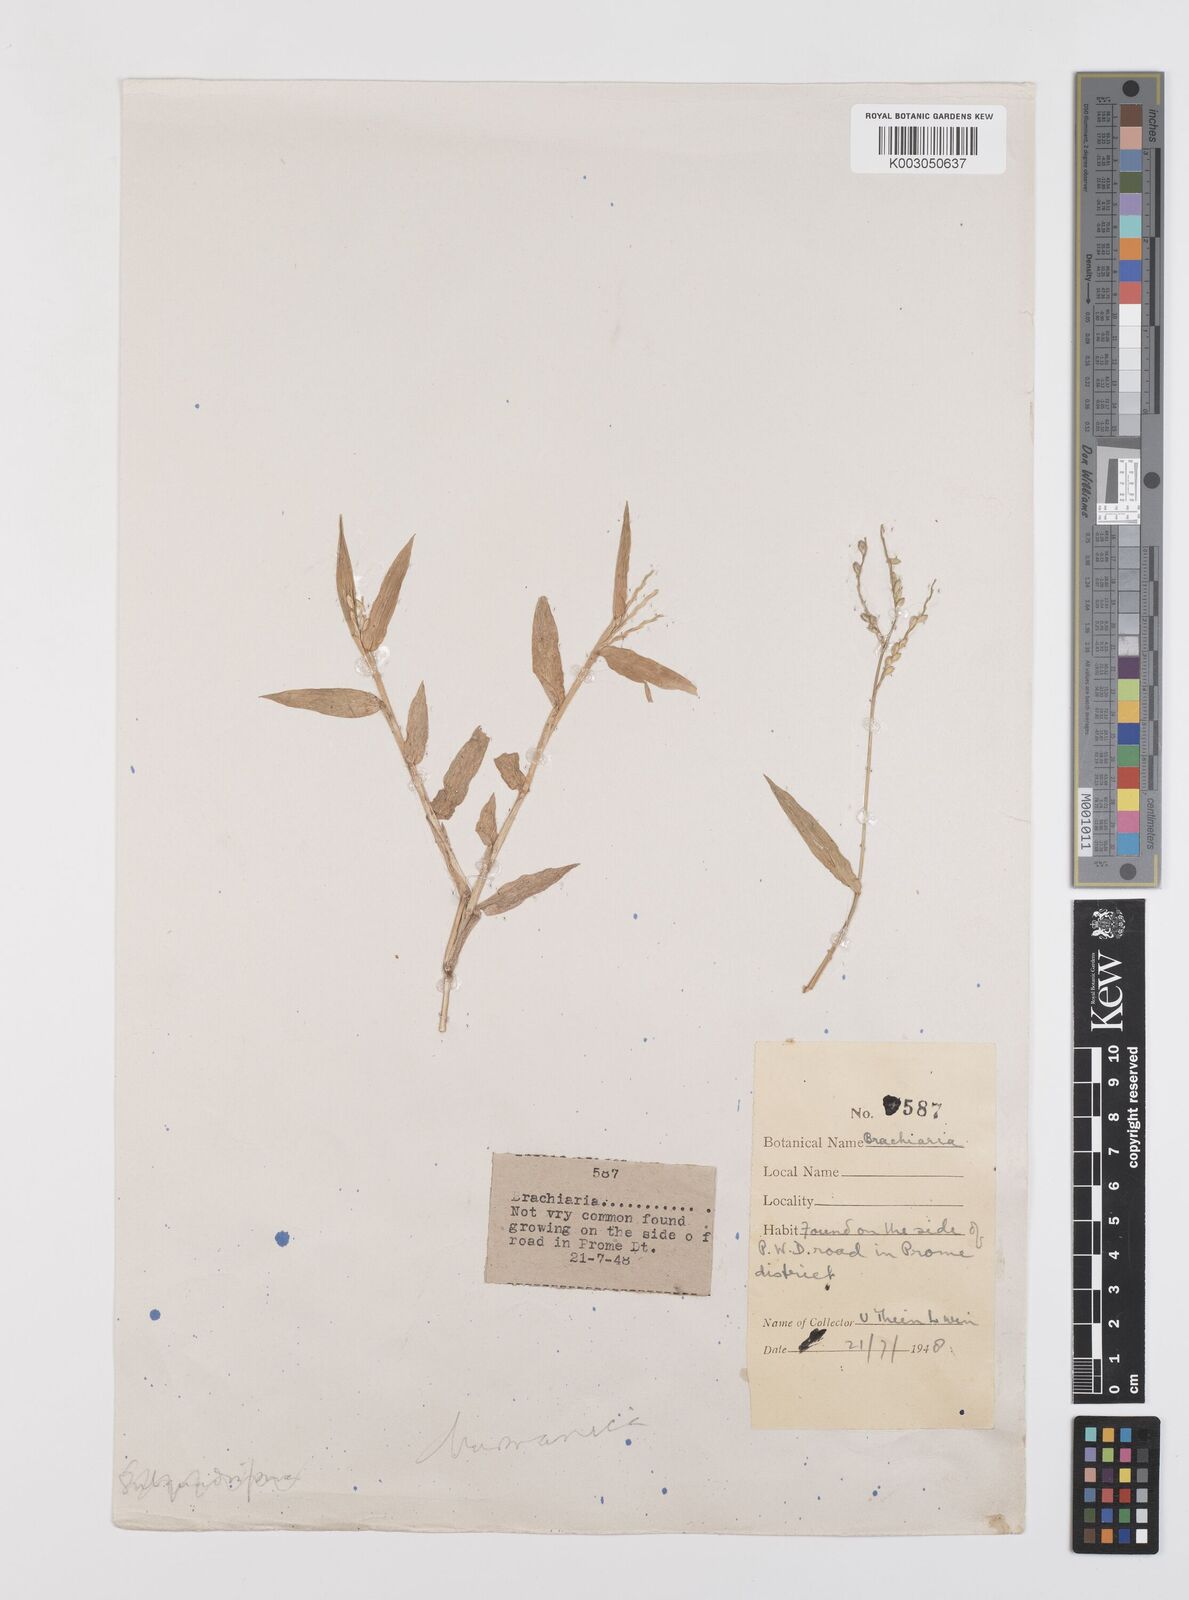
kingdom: Plantae
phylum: Tracheophyta
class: Liliopsida
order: Poales
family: Poaceae
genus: Urochloa
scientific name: Urochloa burmanica
